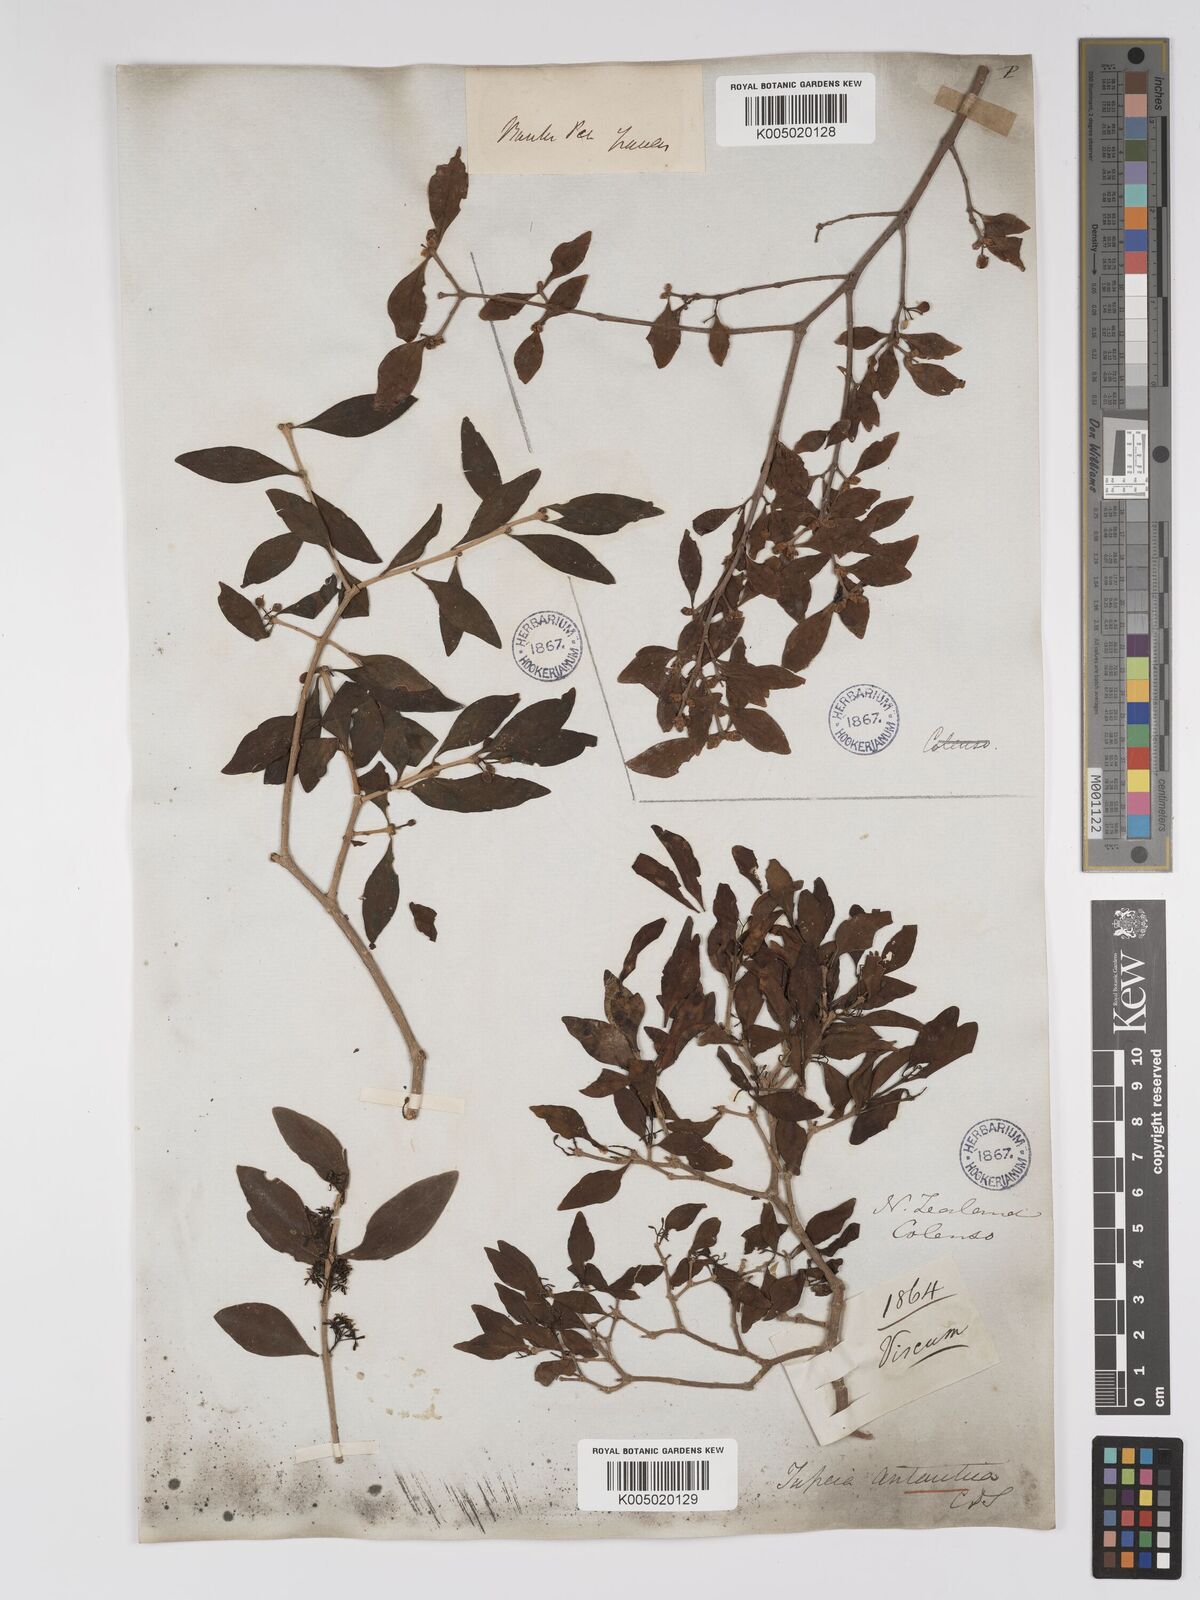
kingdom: Plantae
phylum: Tracheophyta
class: Magnoliopsida
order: Santalales
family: Loranthaceae
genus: Tupeia
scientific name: Tupeia antarctica
